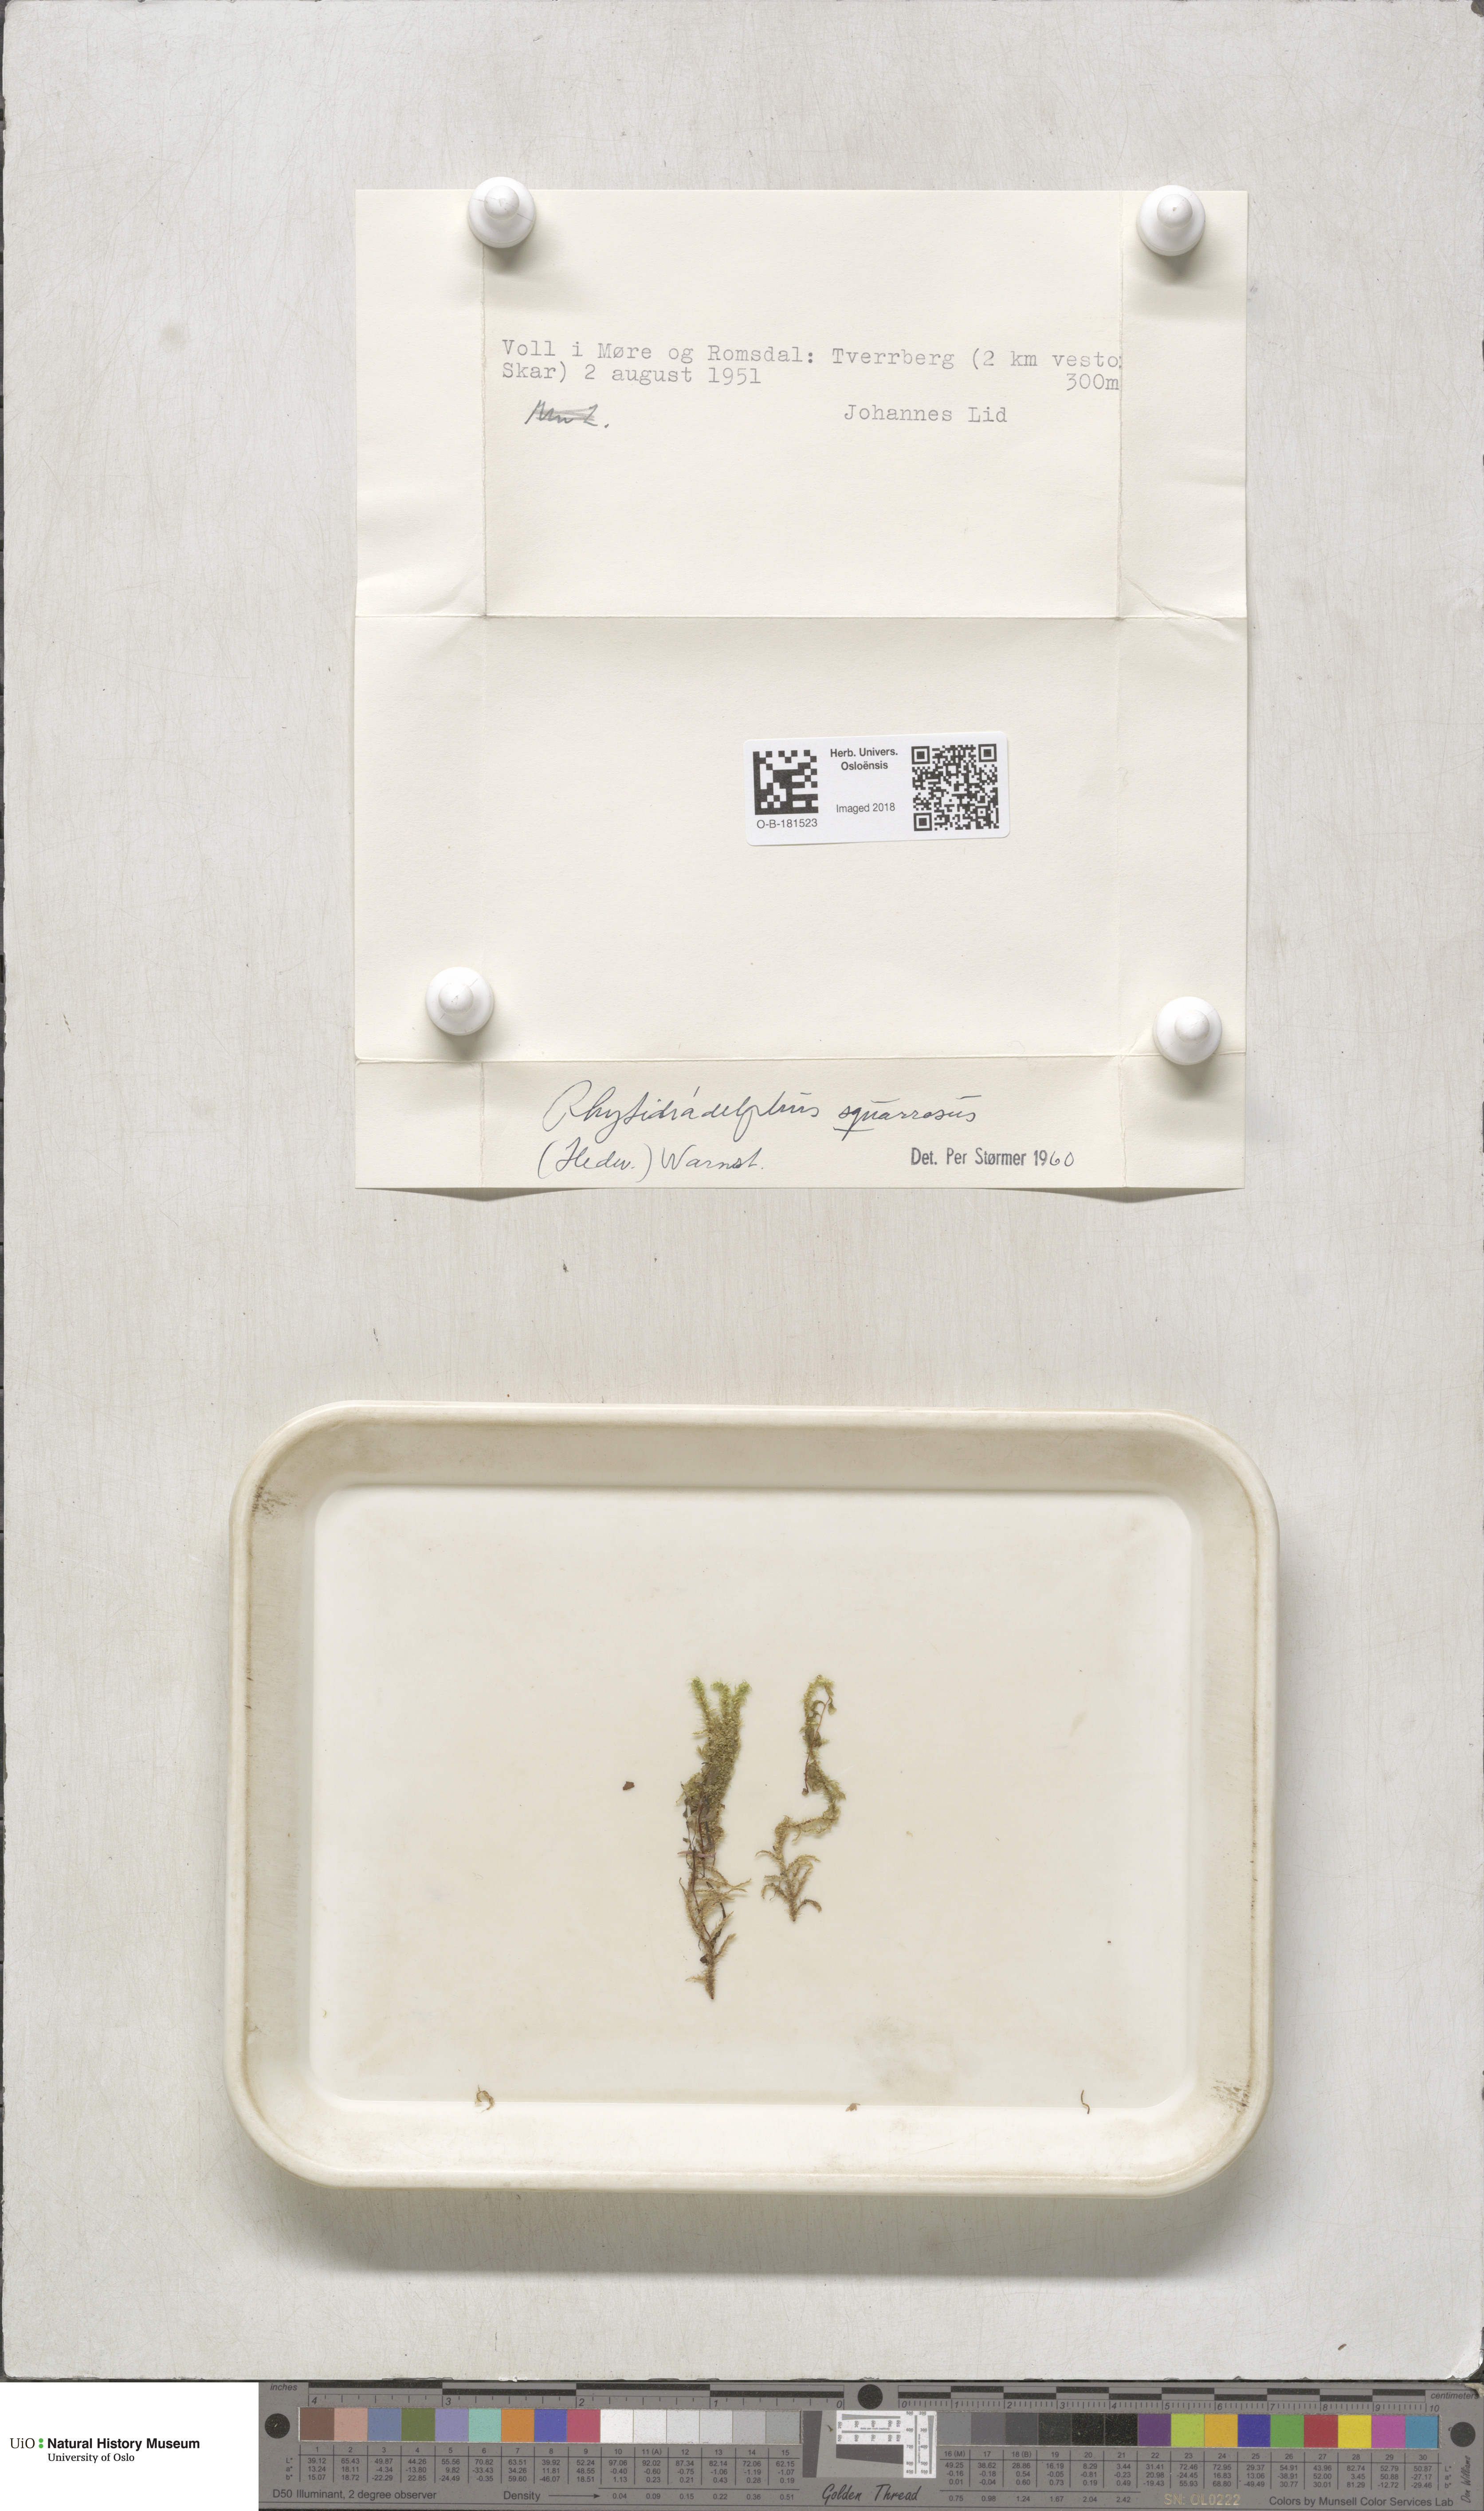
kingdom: Plantae
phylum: Bryophyta
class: Bryopsida
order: Hypnales
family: Hylocomiaceae
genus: Rhytidiadelphus
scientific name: Rhytidiadelphus squarrosus
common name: Springy turf-moss
